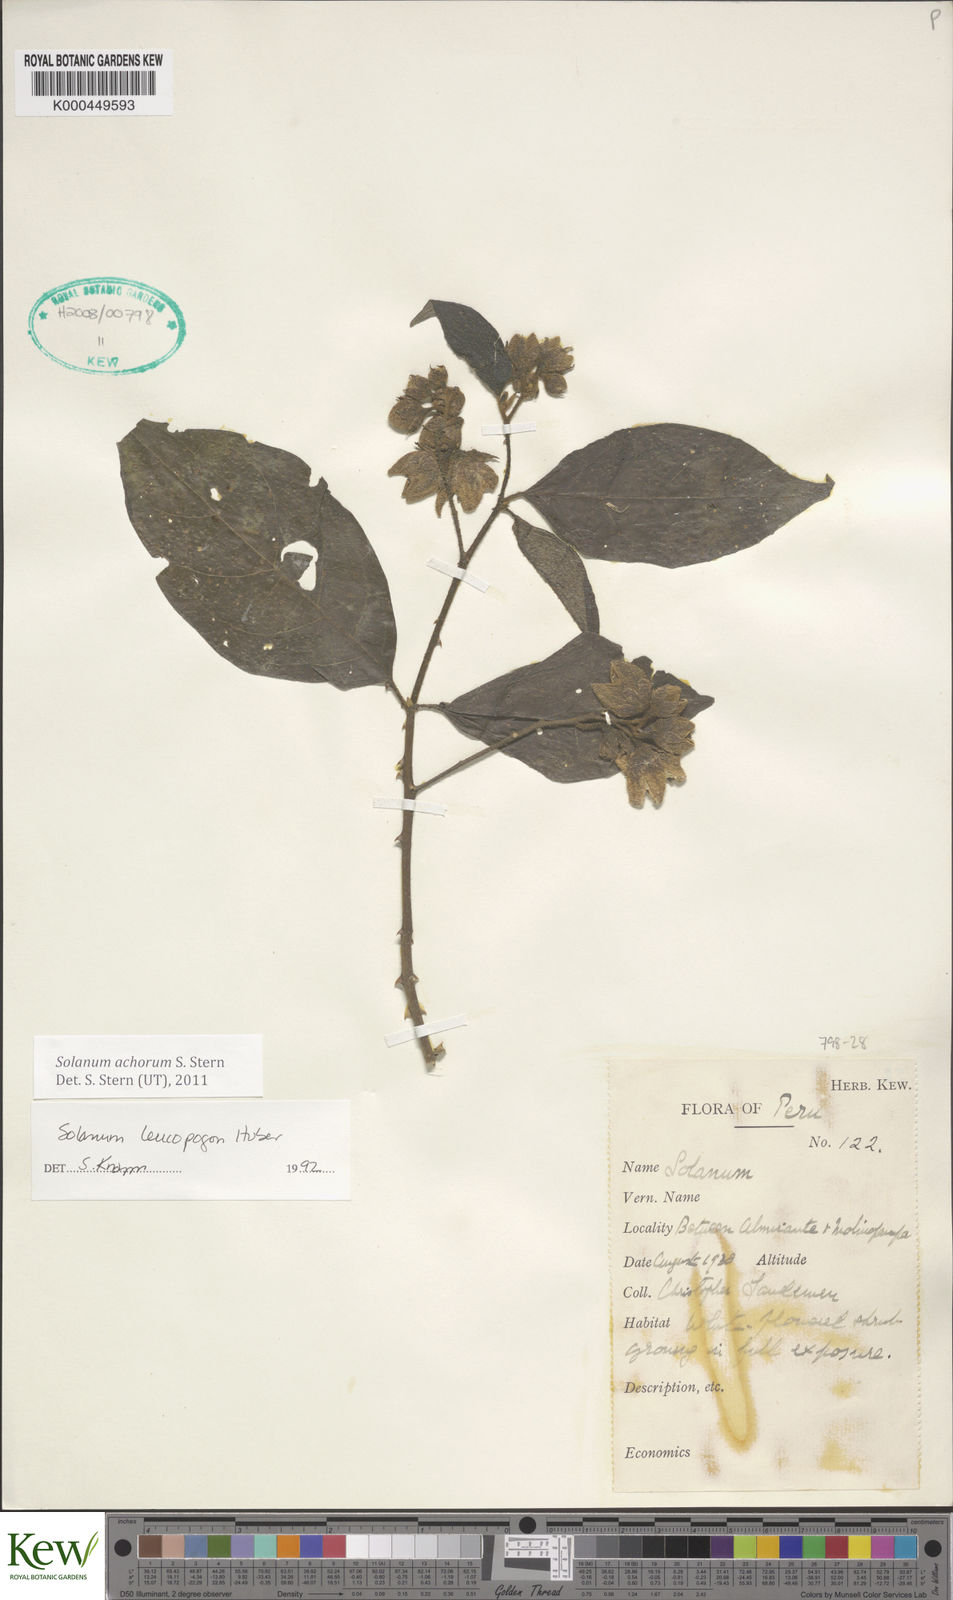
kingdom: Plantae
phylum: Tracheophyta
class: Magnoliopsida
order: Solanales
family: Solanaceae
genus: Solanum
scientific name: Solanum achorum
